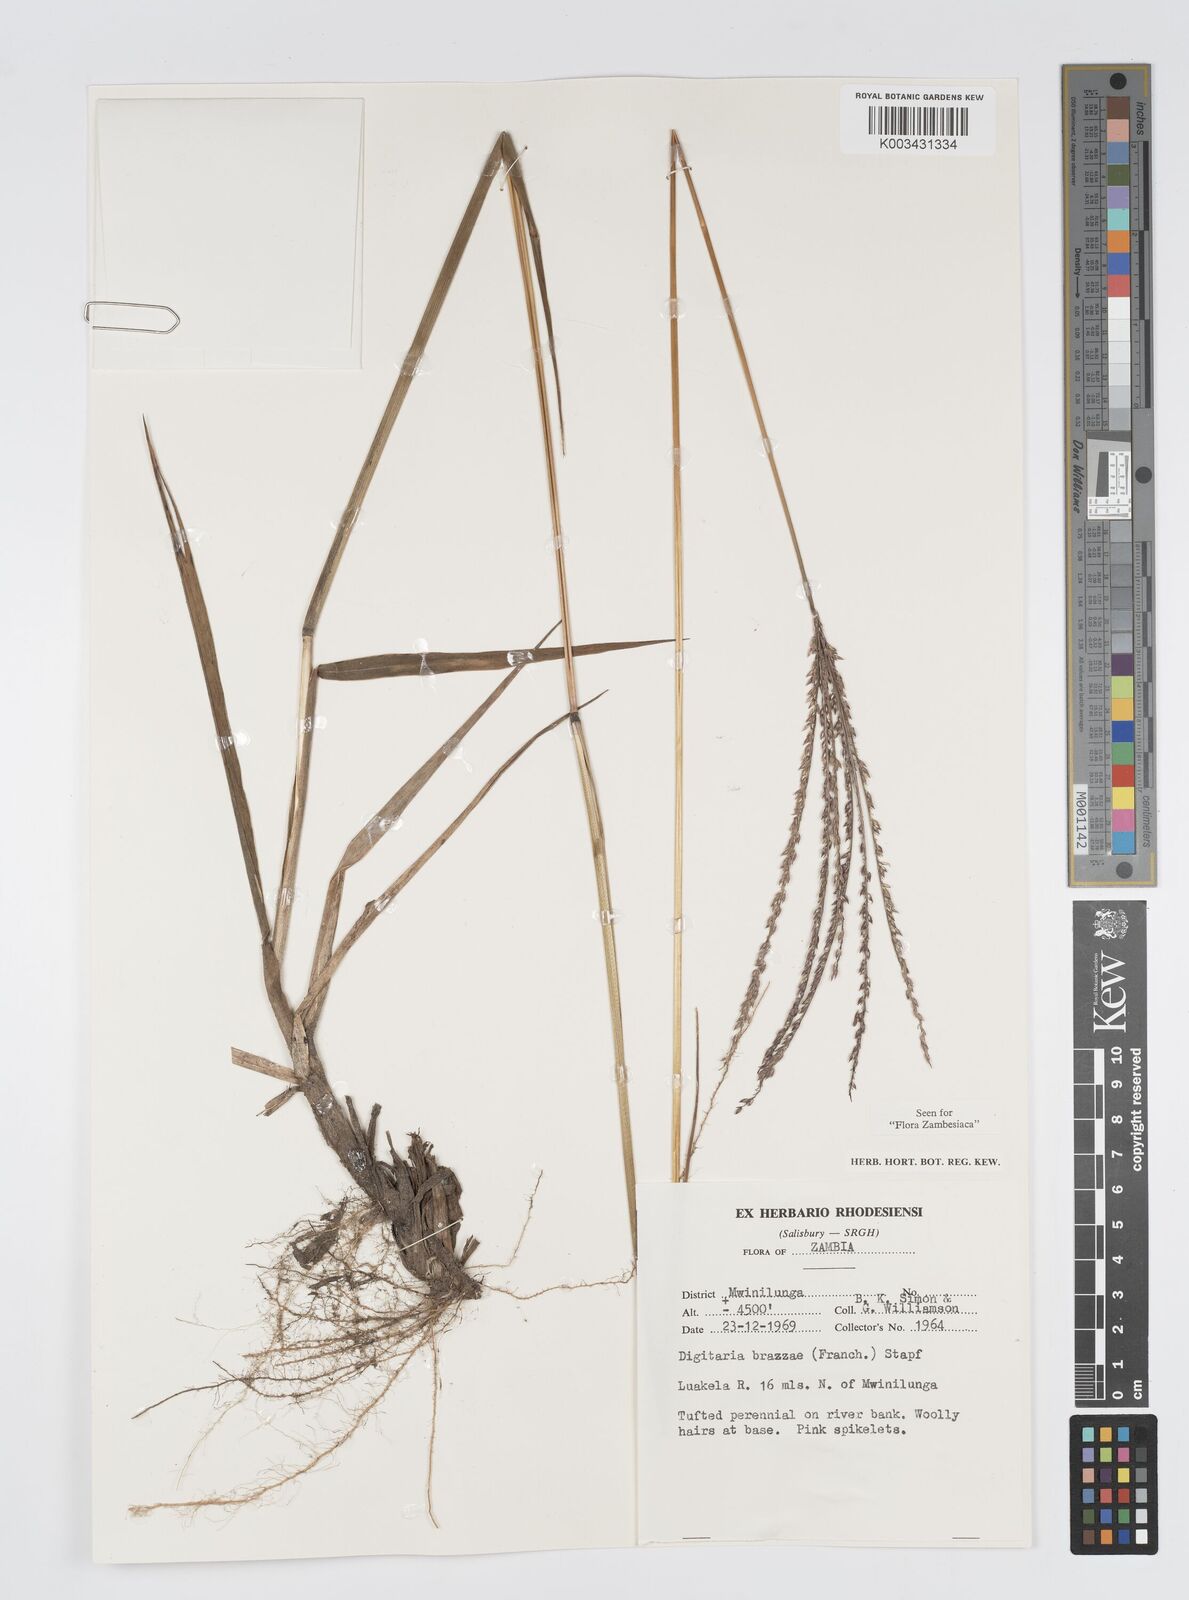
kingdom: Plantae
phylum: Tracheophyta
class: Liliopsida
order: Poales
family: Poaceae
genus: Digitaria
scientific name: Digitaria brazzae
